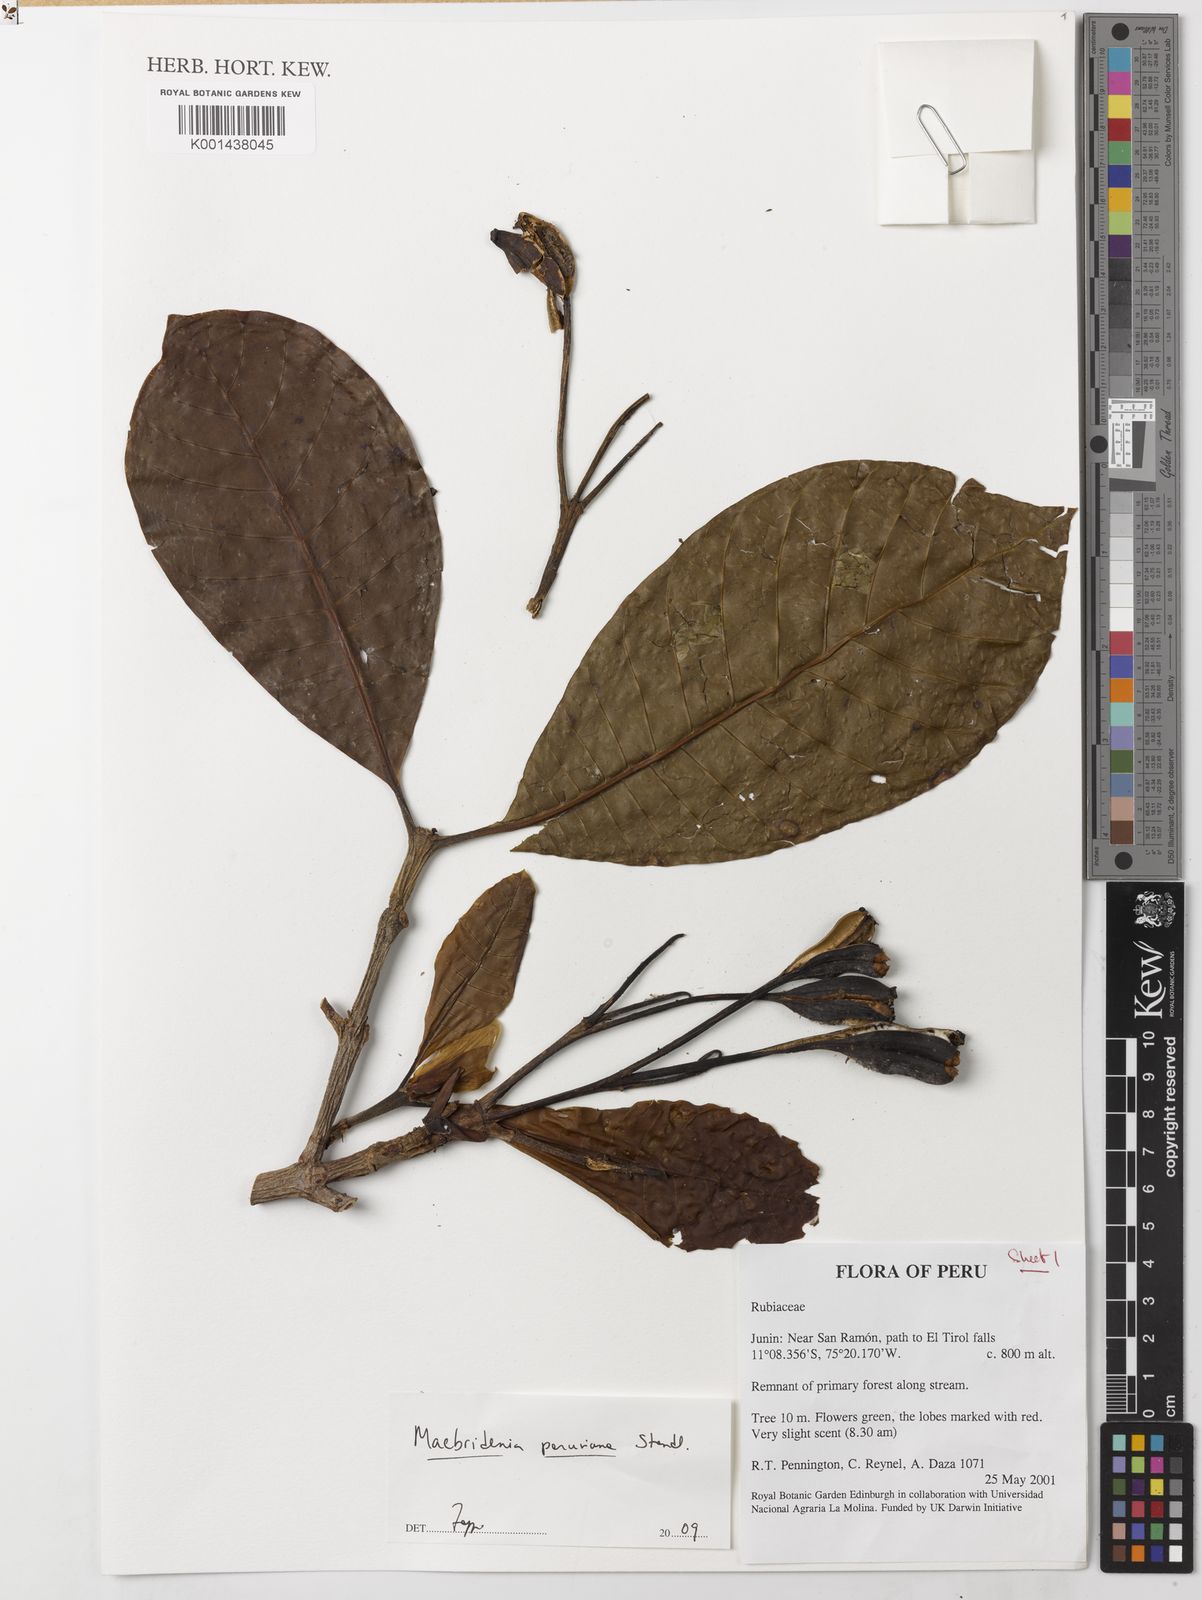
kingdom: Plantae
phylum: Tracheophyta
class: Magnoliopsida
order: Gentianales
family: Rubiaceae
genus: Macbrideina
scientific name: Macbrideina peruviana
